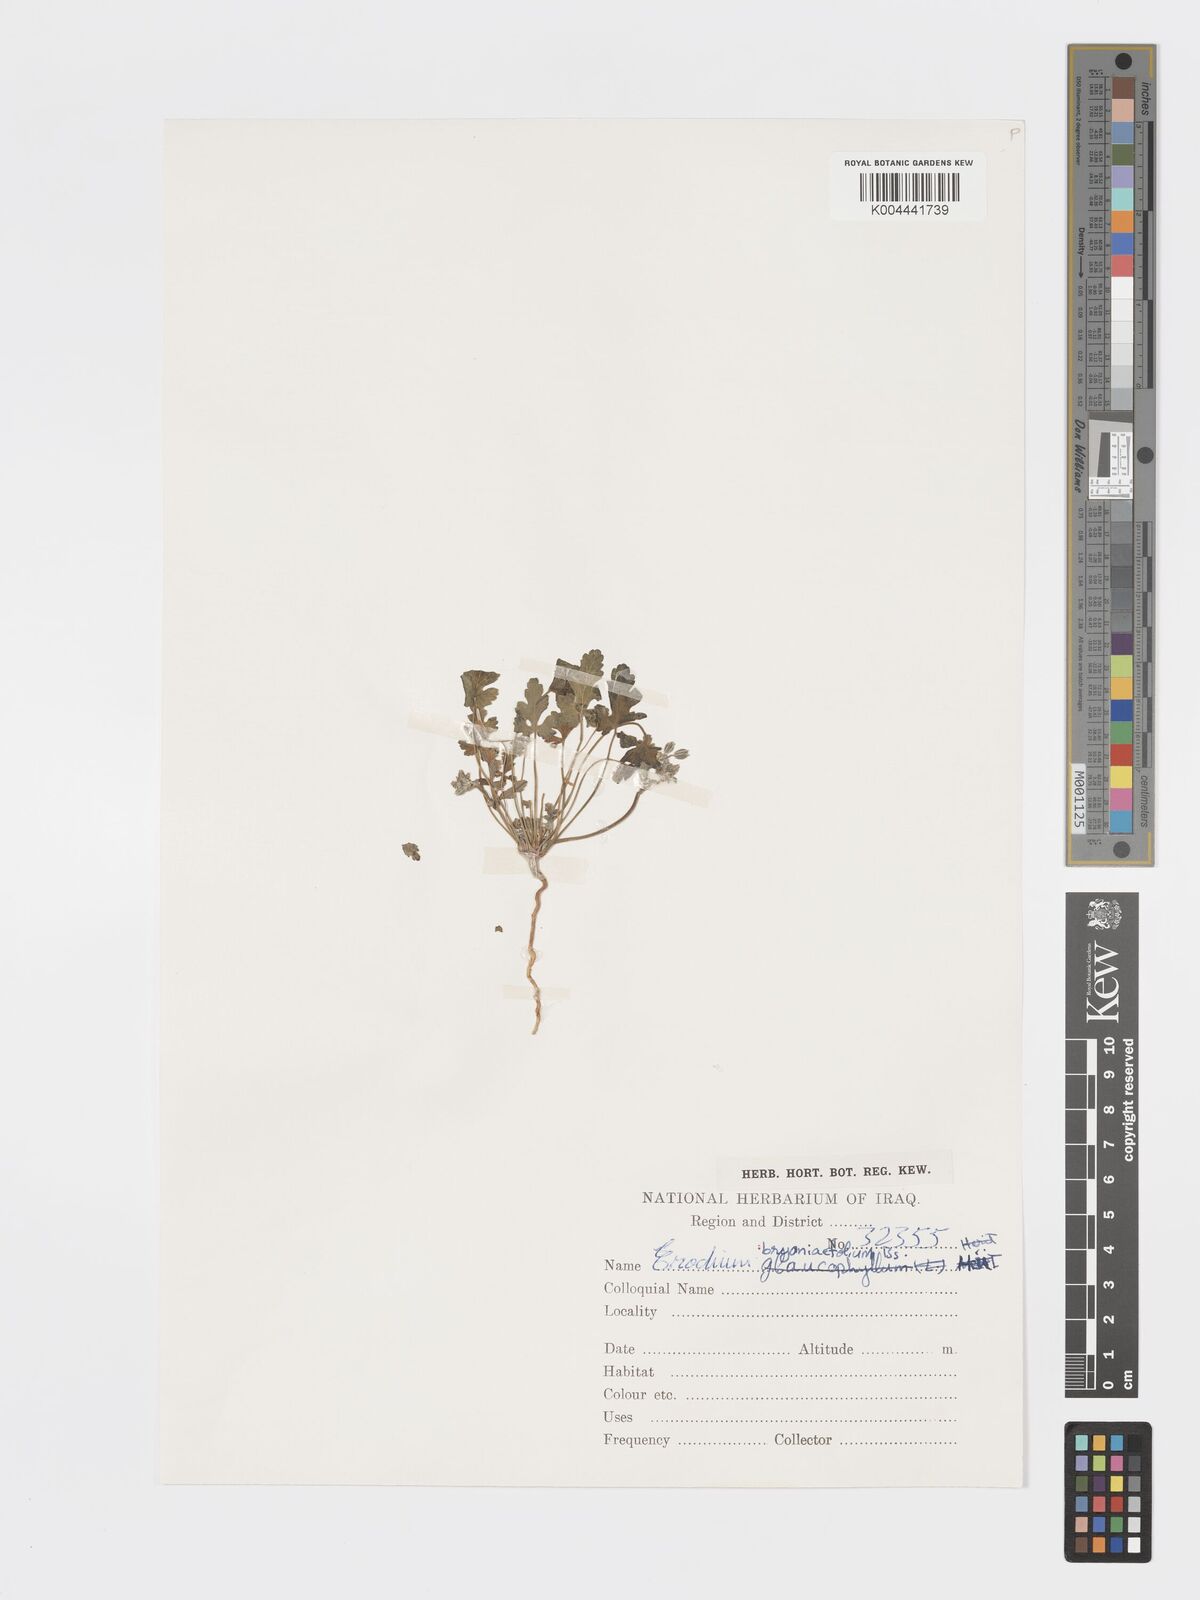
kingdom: Plantae
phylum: Tracheophyta
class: Magnoliopsida
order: Geraniales
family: Geraniaceae
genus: Erodium
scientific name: Erodium glaucophyllum
